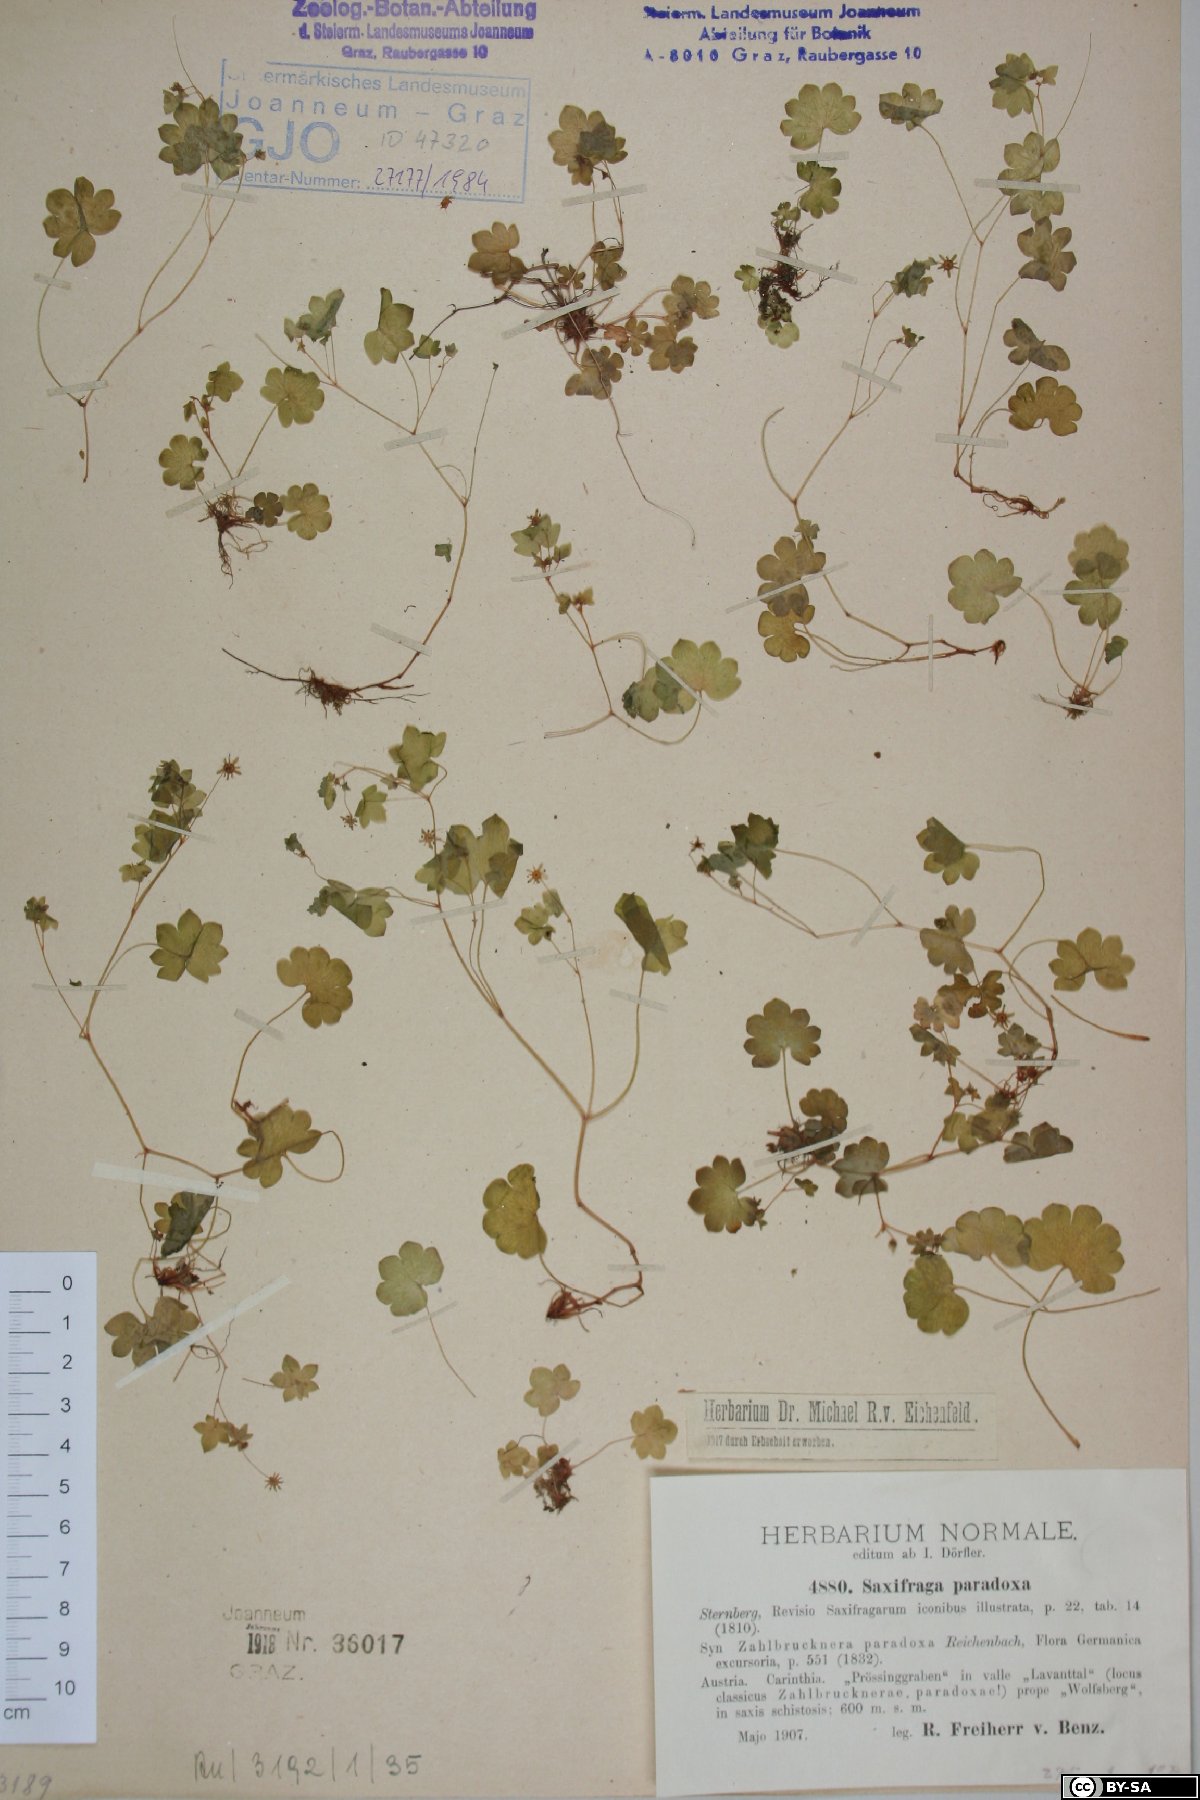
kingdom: Plantae
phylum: Tracheophyta
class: Magnoliopsida
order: Saxifragales
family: Saxifragaceae
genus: Saxifraga
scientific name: Saxifraga paradoxa
